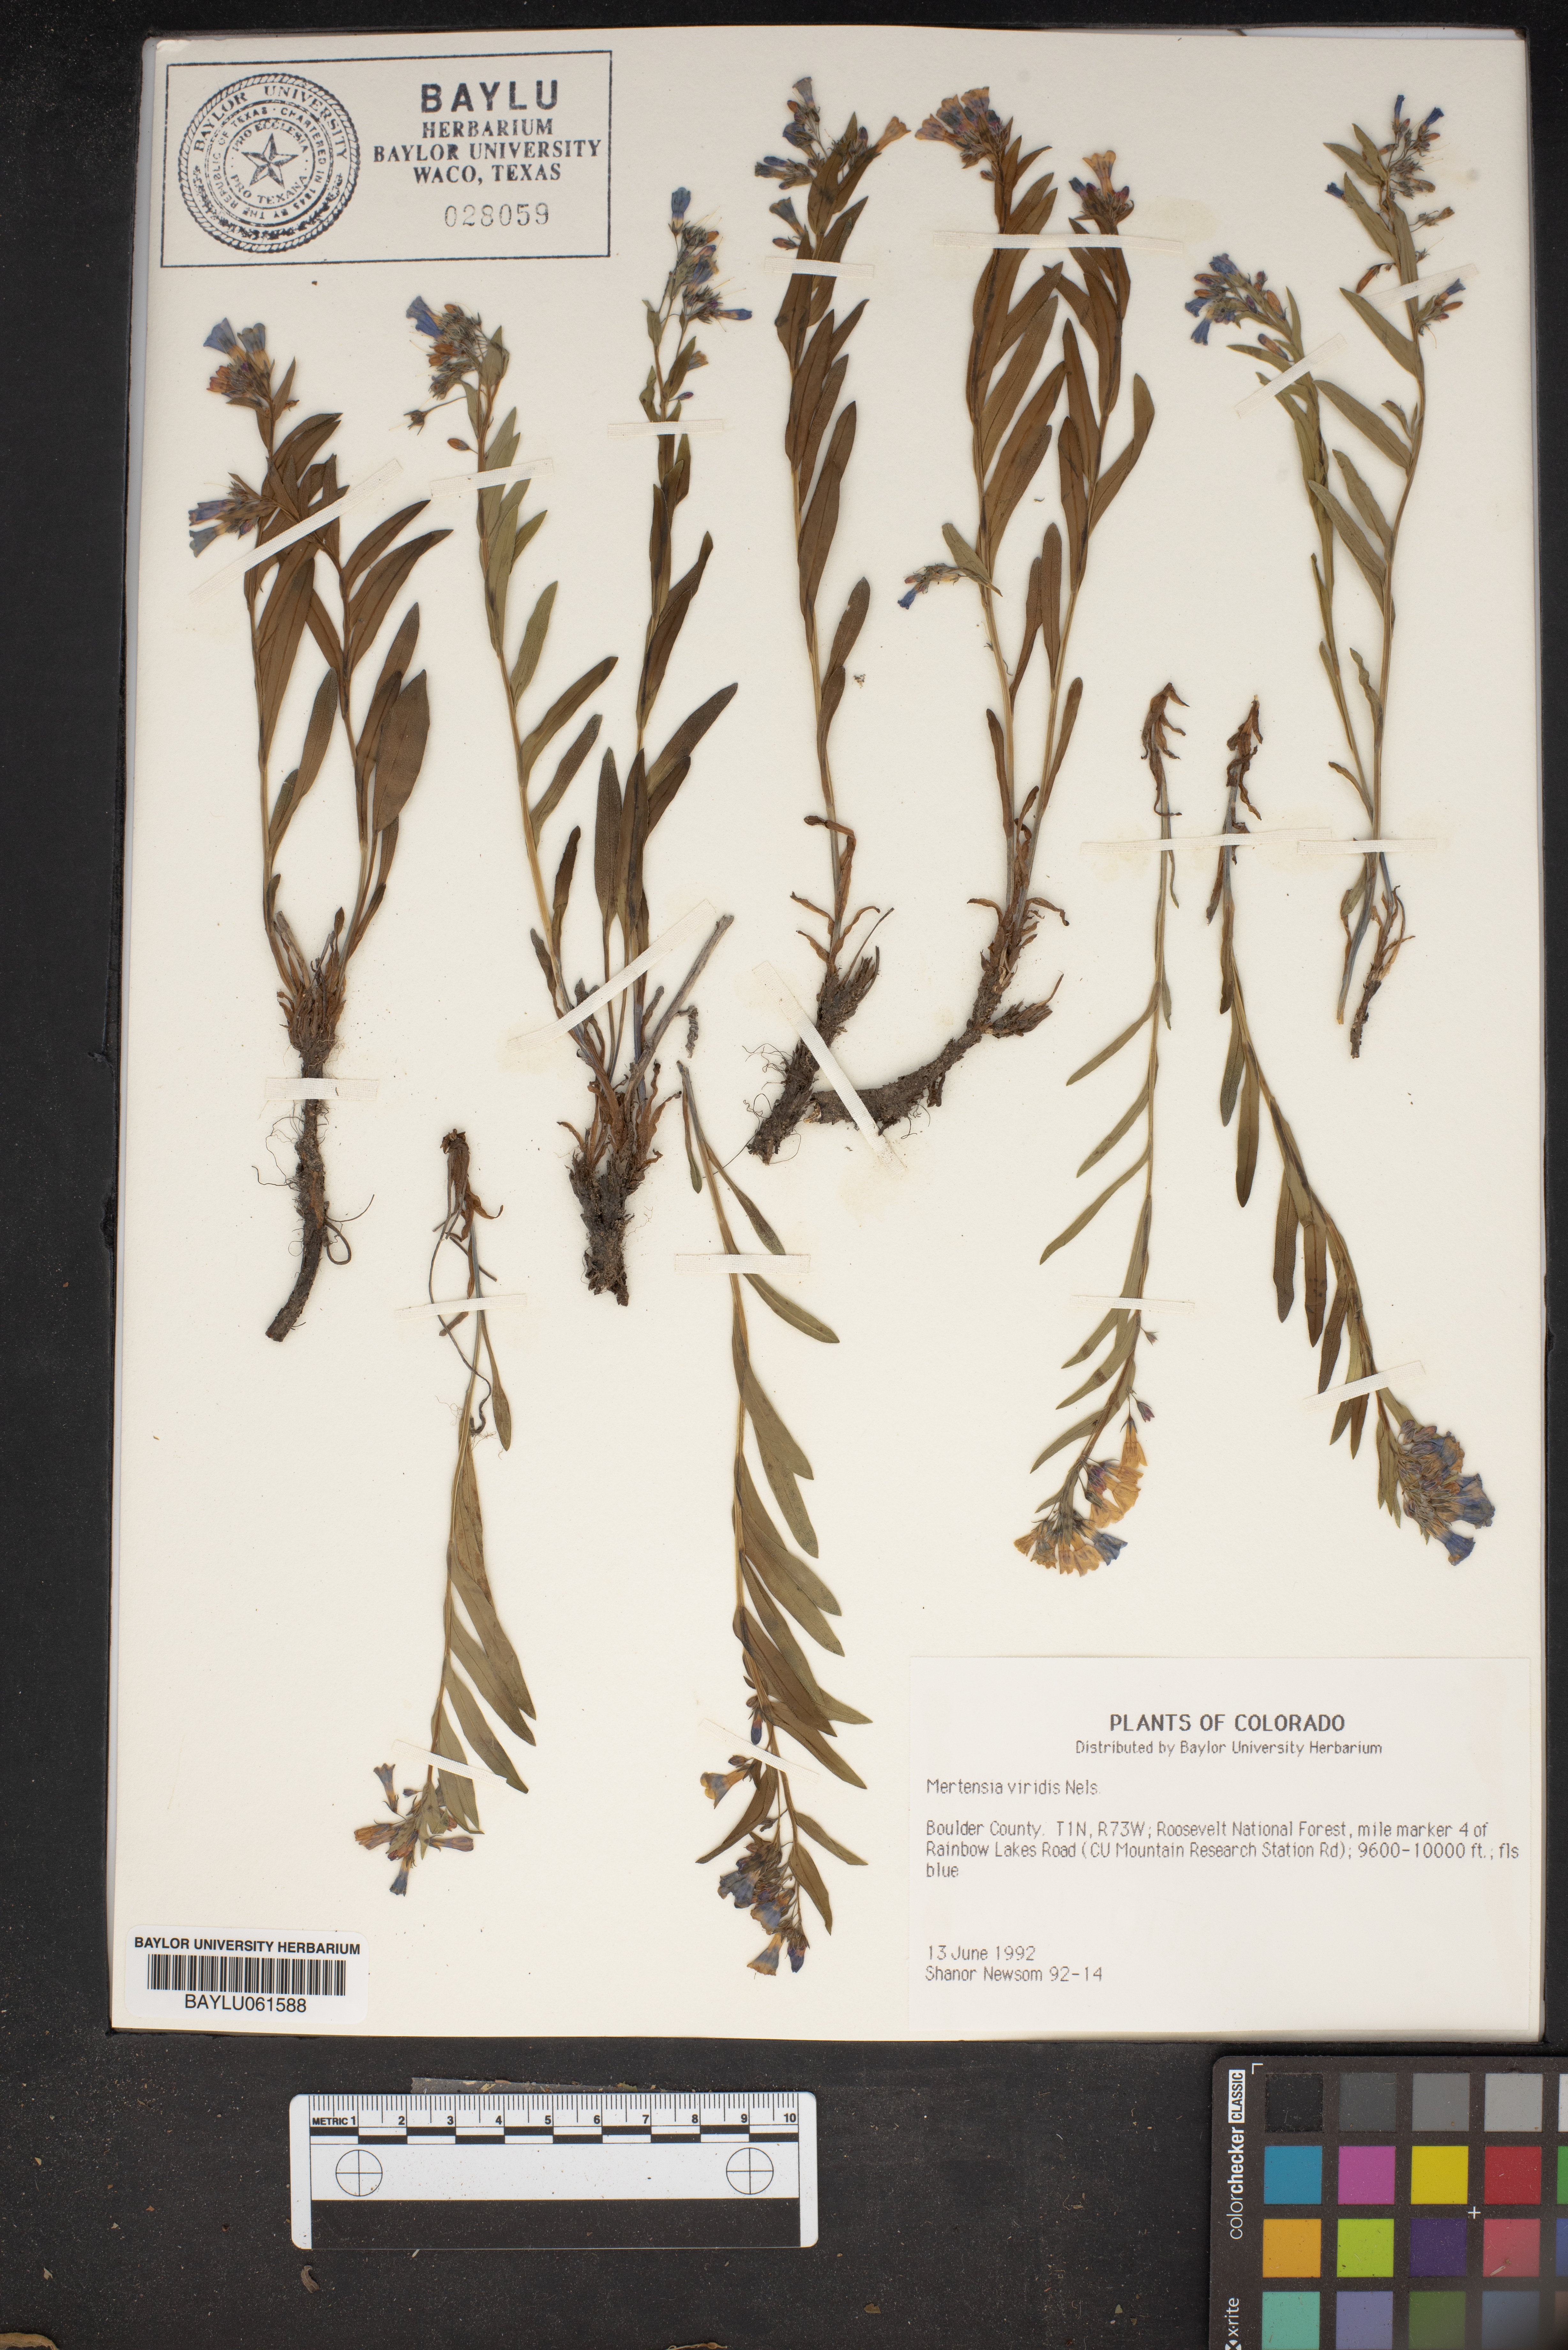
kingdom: Plantae
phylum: Tracheophyta
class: Magnoliopsida
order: Boraginales
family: Boraginaceae
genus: Mertensia
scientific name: Mertensia viridis
